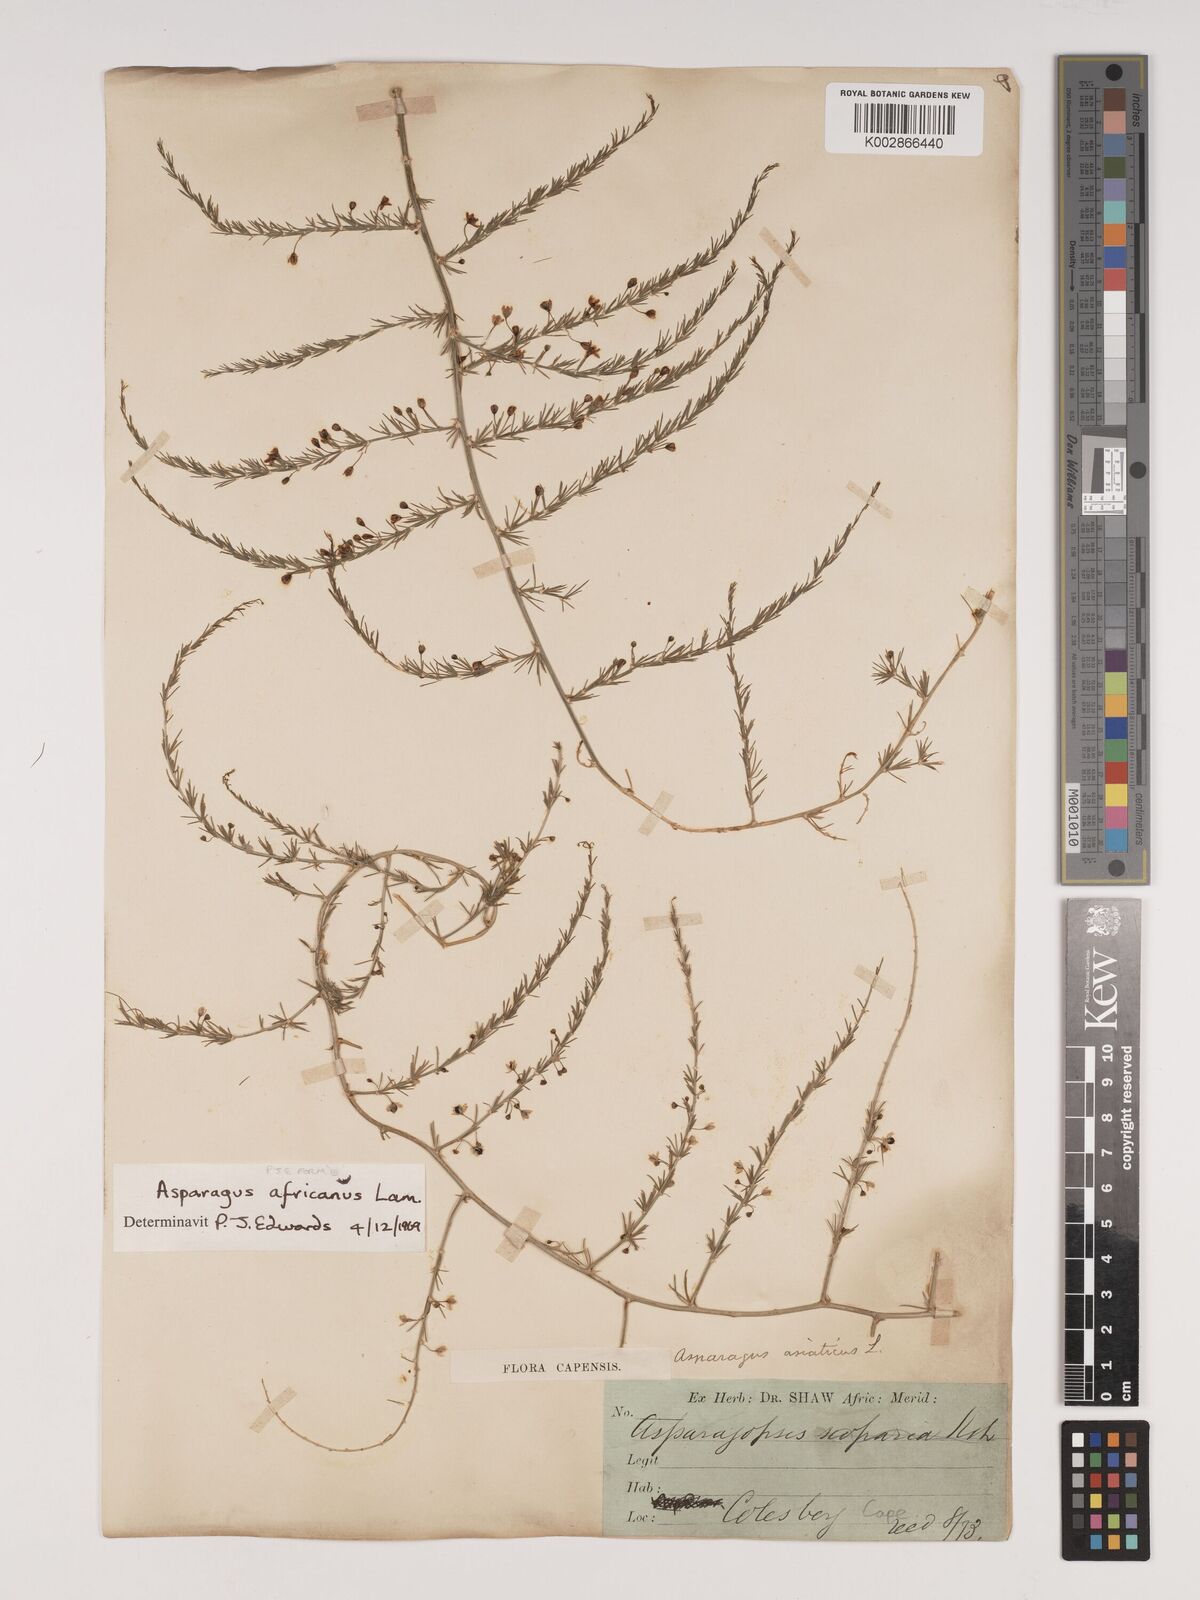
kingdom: Plantae
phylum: Tracheophyta
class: Liliopsida
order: Asparagales
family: Asparagaceae
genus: Asparagus
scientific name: Asparagus africanus
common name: Asparagus-fern
